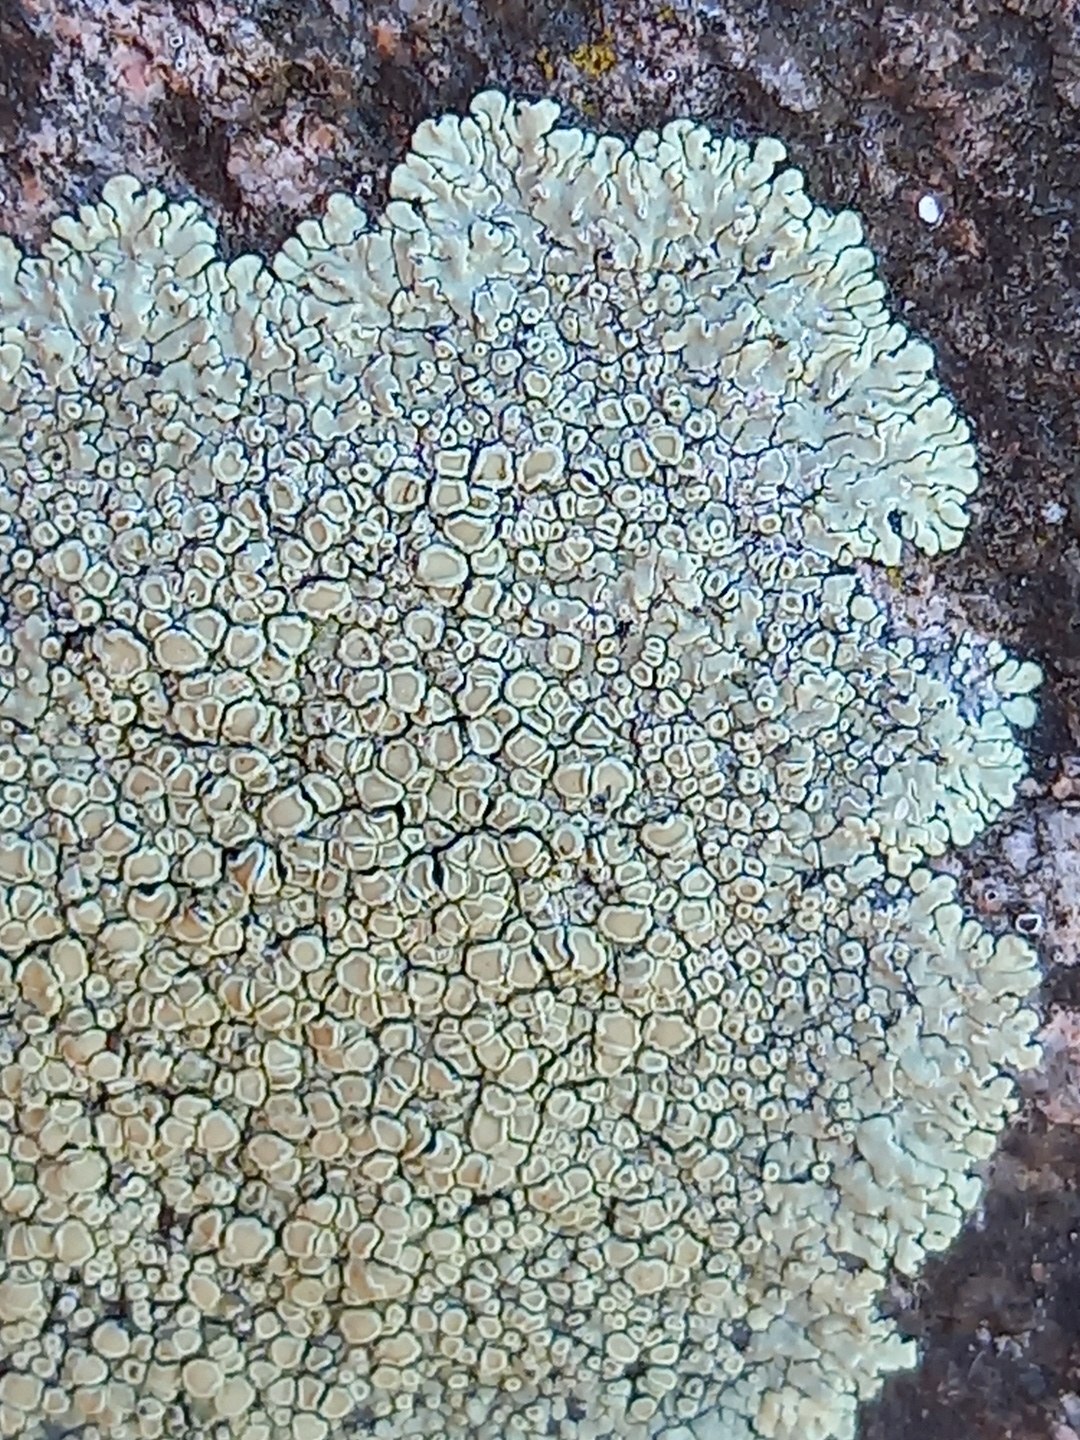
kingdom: Fungi
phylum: Ascomycota
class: Lecanoromycetes
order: Lecanorales
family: Lecanoraceae
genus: Protoparmeliopsis
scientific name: Protoparmeliopsis muralis
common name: randfliget kantskivelav
